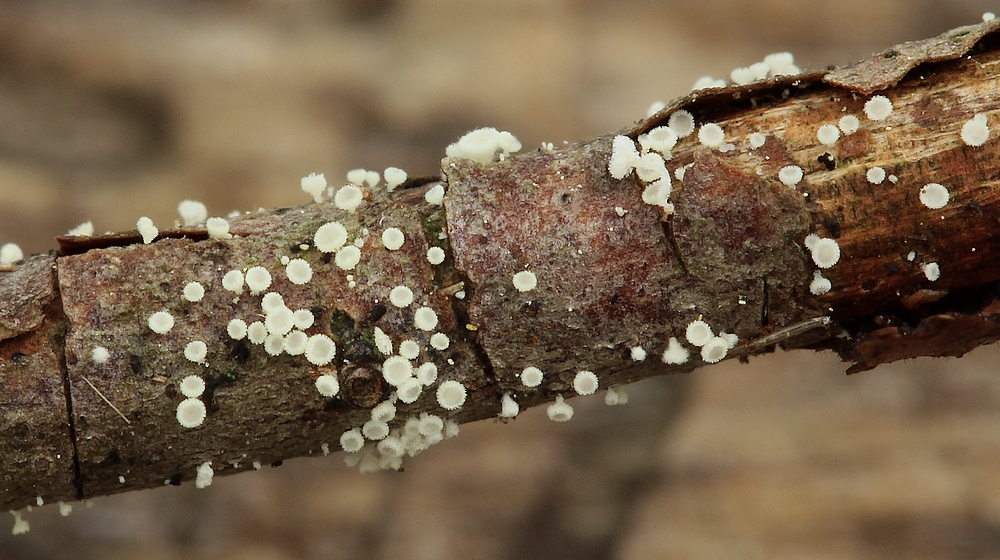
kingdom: Fungi
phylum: Ascomycota
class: Leotiomycetes
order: Helotiales
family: Lachnaceae
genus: Incrucipulum
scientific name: Incrucipulum sulphurellum
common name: pors-frynseskive
